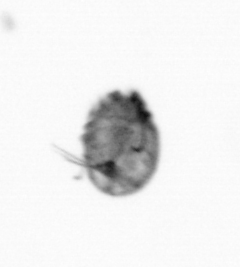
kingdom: Animalia
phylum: Arthropoda
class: Copepoda
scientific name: Copepoda
